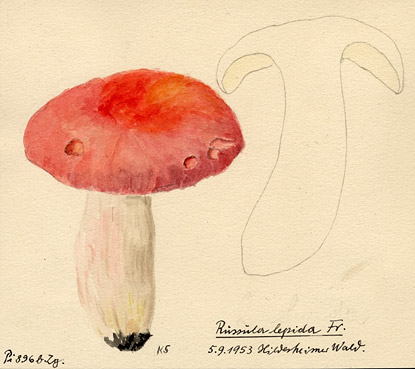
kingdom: Fungi
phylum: Basidiomycota
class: Agaricomycetes
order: Russulales
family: Russulaceae
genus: Russula
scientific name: Russula rosea
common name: Rosy brittlegill
